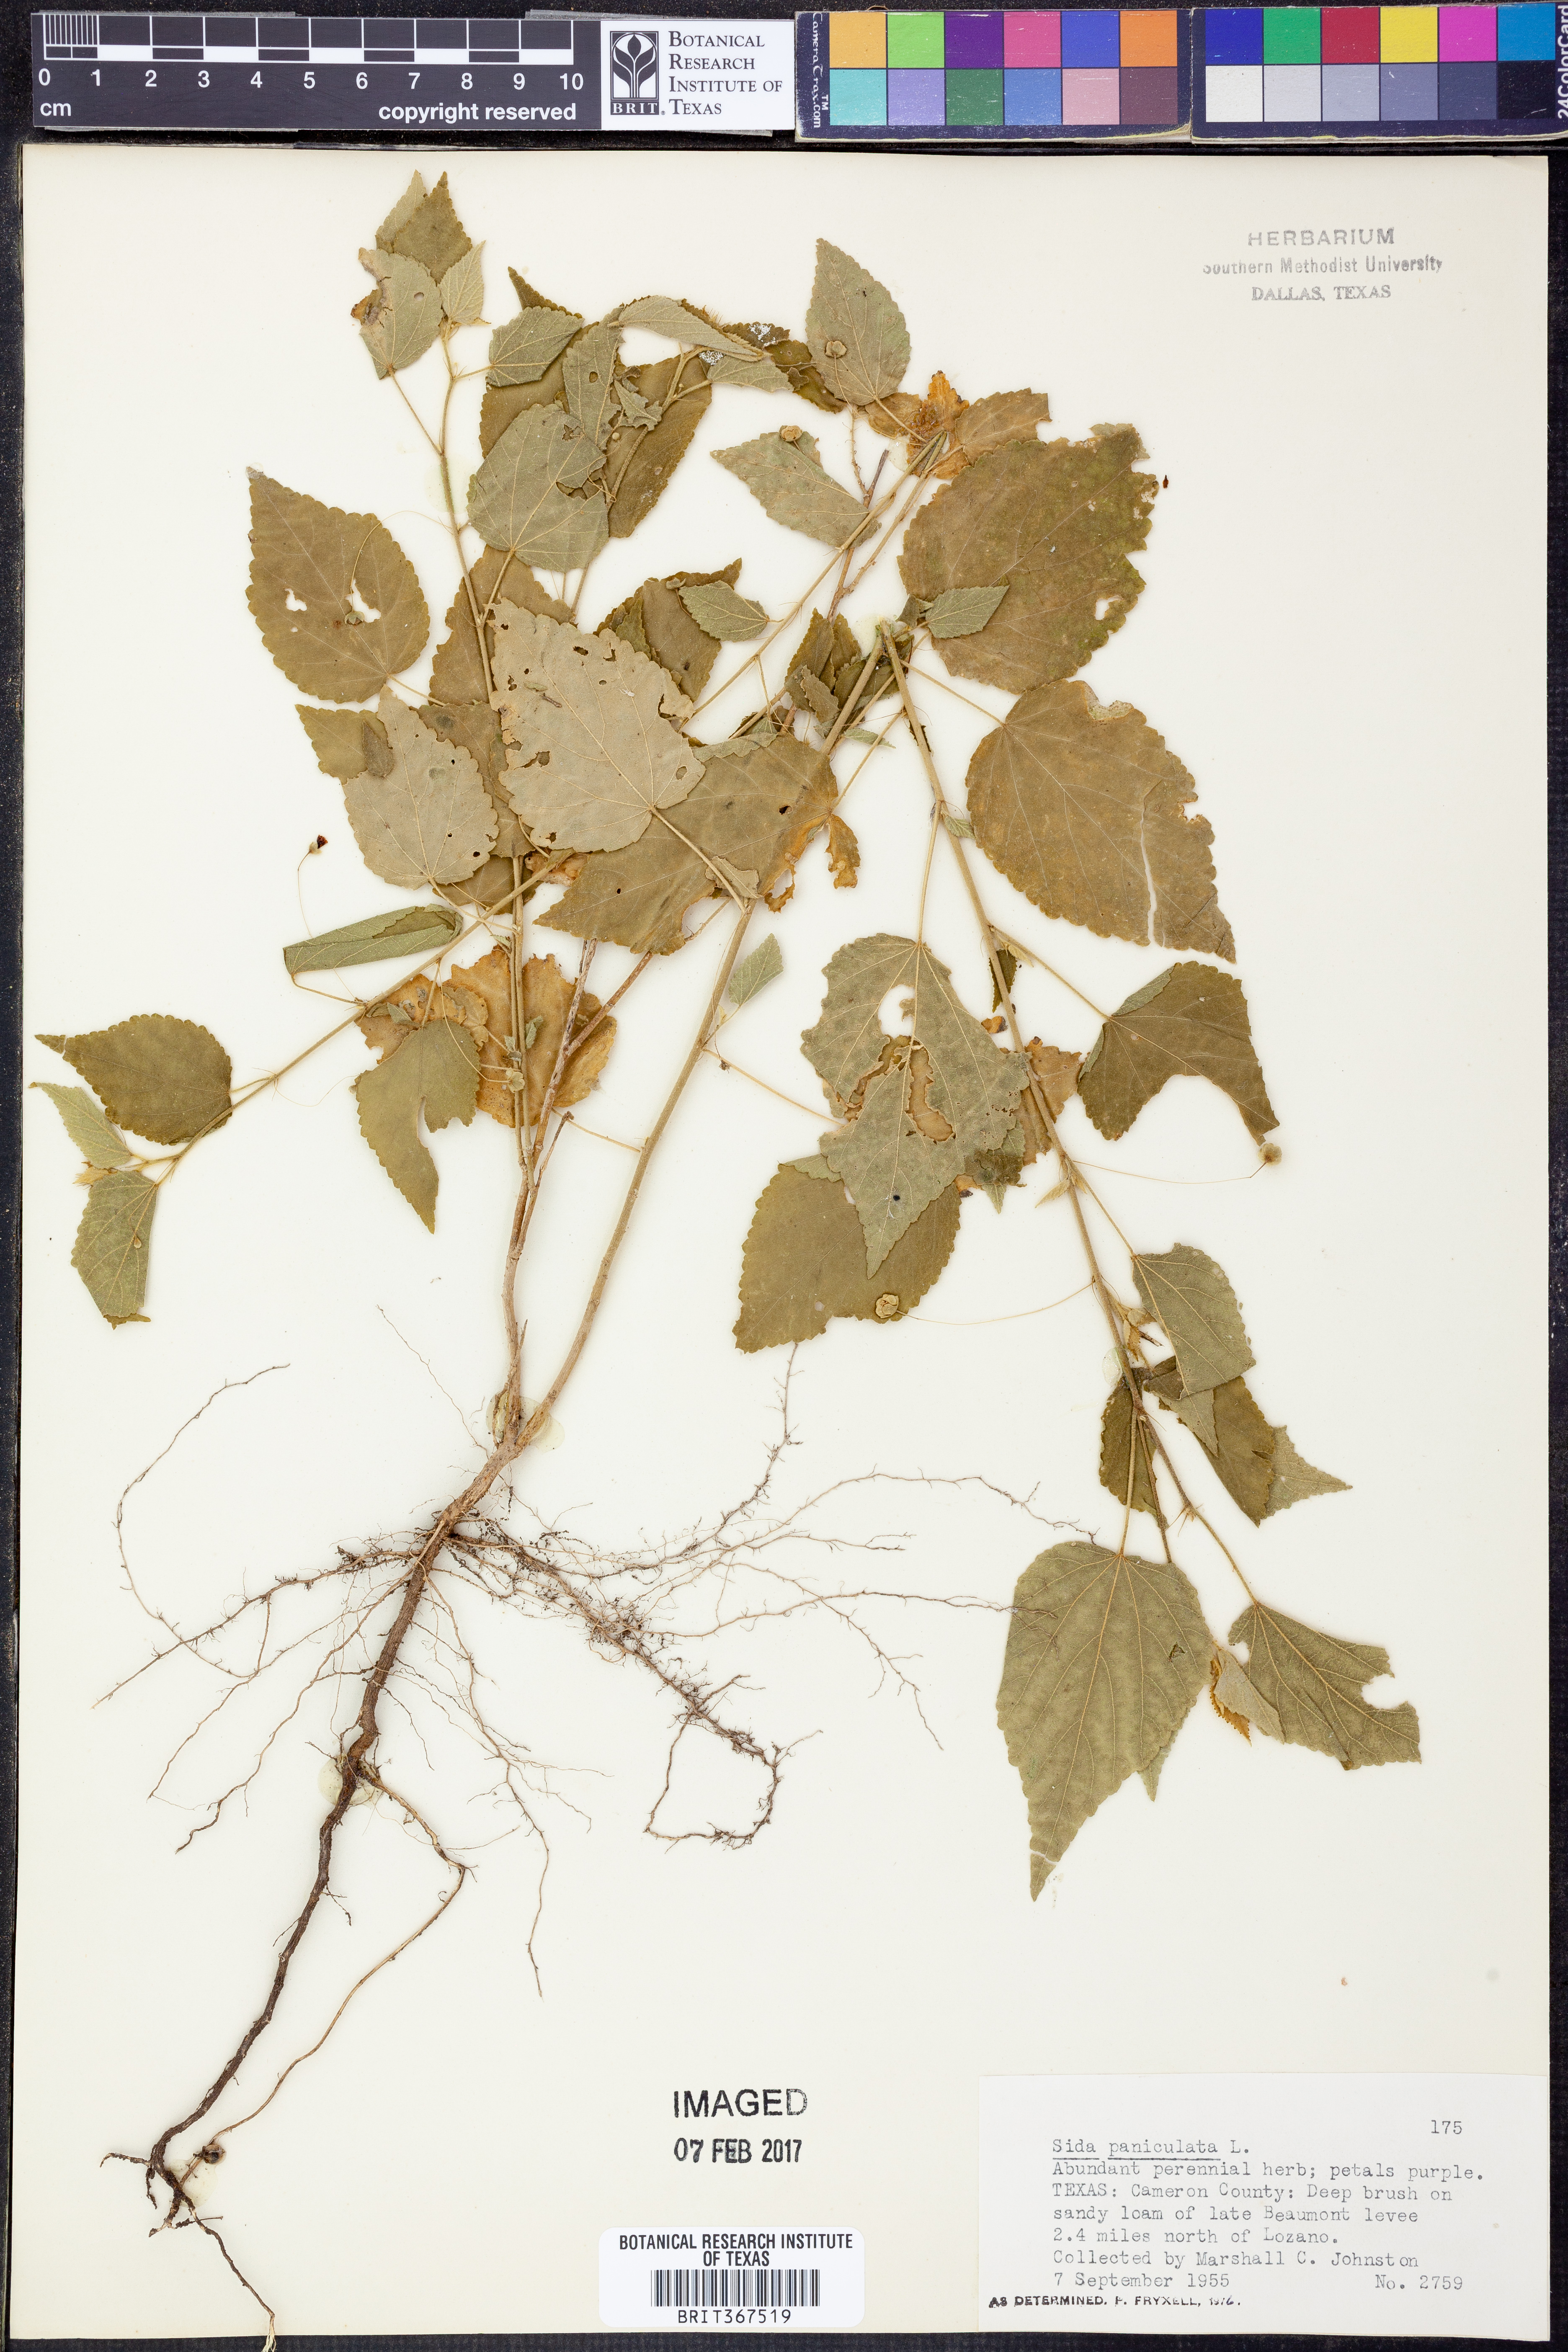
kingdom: Plantae
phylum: Tracheophyta
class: Magnoliopsida
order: Malvales
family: Malvaceae
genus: Sidastrum
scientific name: Sidastrum paniculatum
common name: Panicled sandmallow
